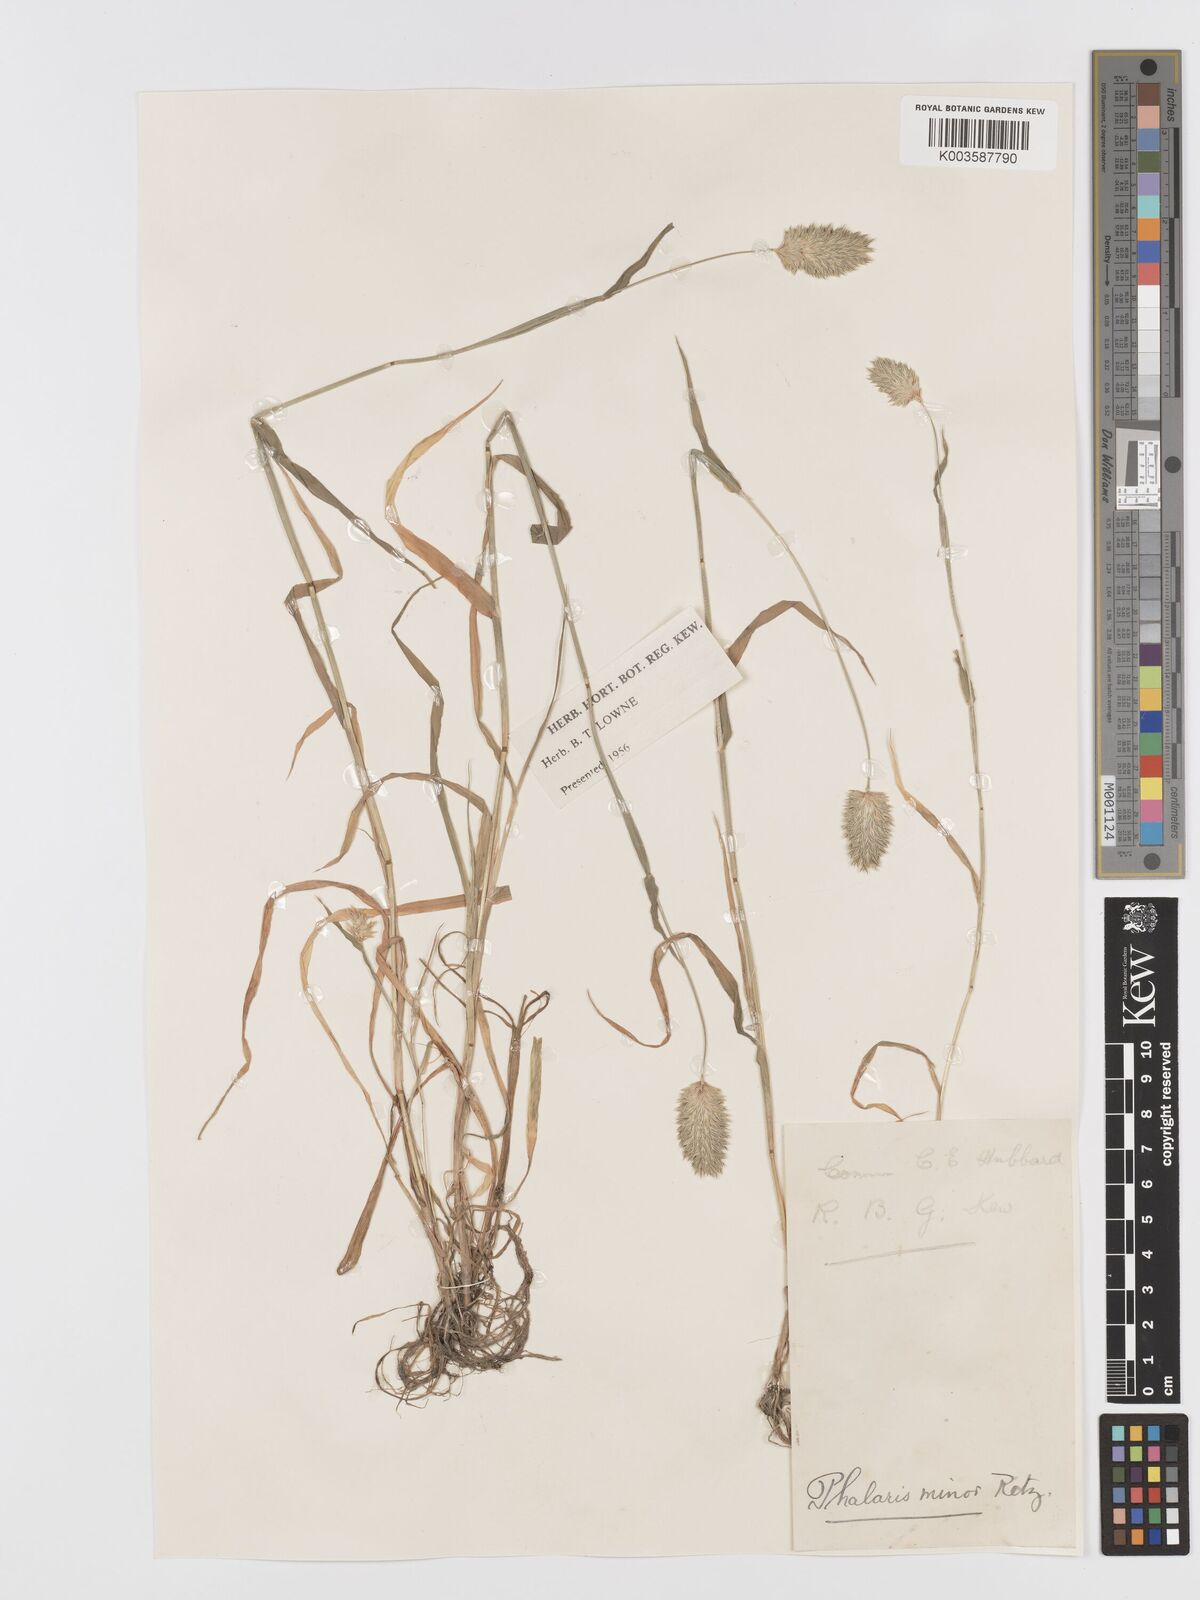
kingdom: Plantae
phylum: Tracheophyta
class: Liliopsida
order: Poales
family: Poaceae
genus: Phalaris
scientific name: Phalaris minor
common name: Littleseed canarygrass
